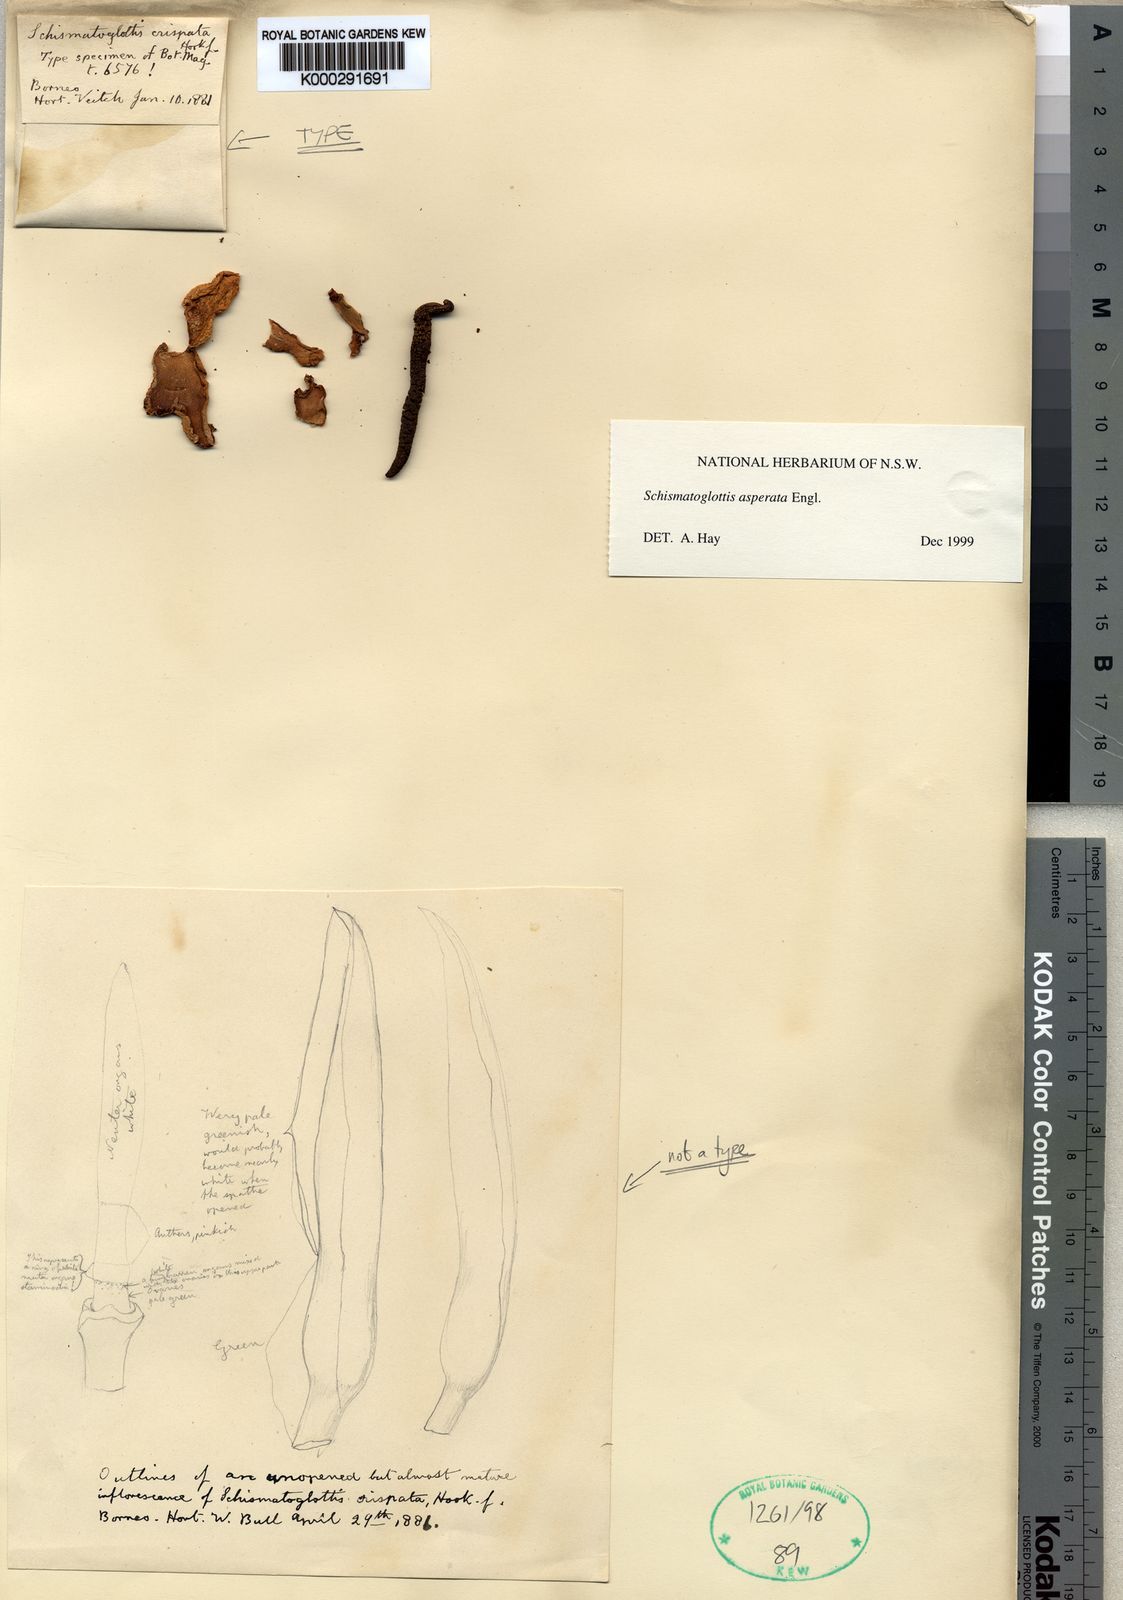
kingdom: Plantae
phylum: Tracheophyta
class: Liliopsida
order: Alismatales
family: Araceae
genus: Schismatoglottis
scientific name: Schismatoglottis asperata
